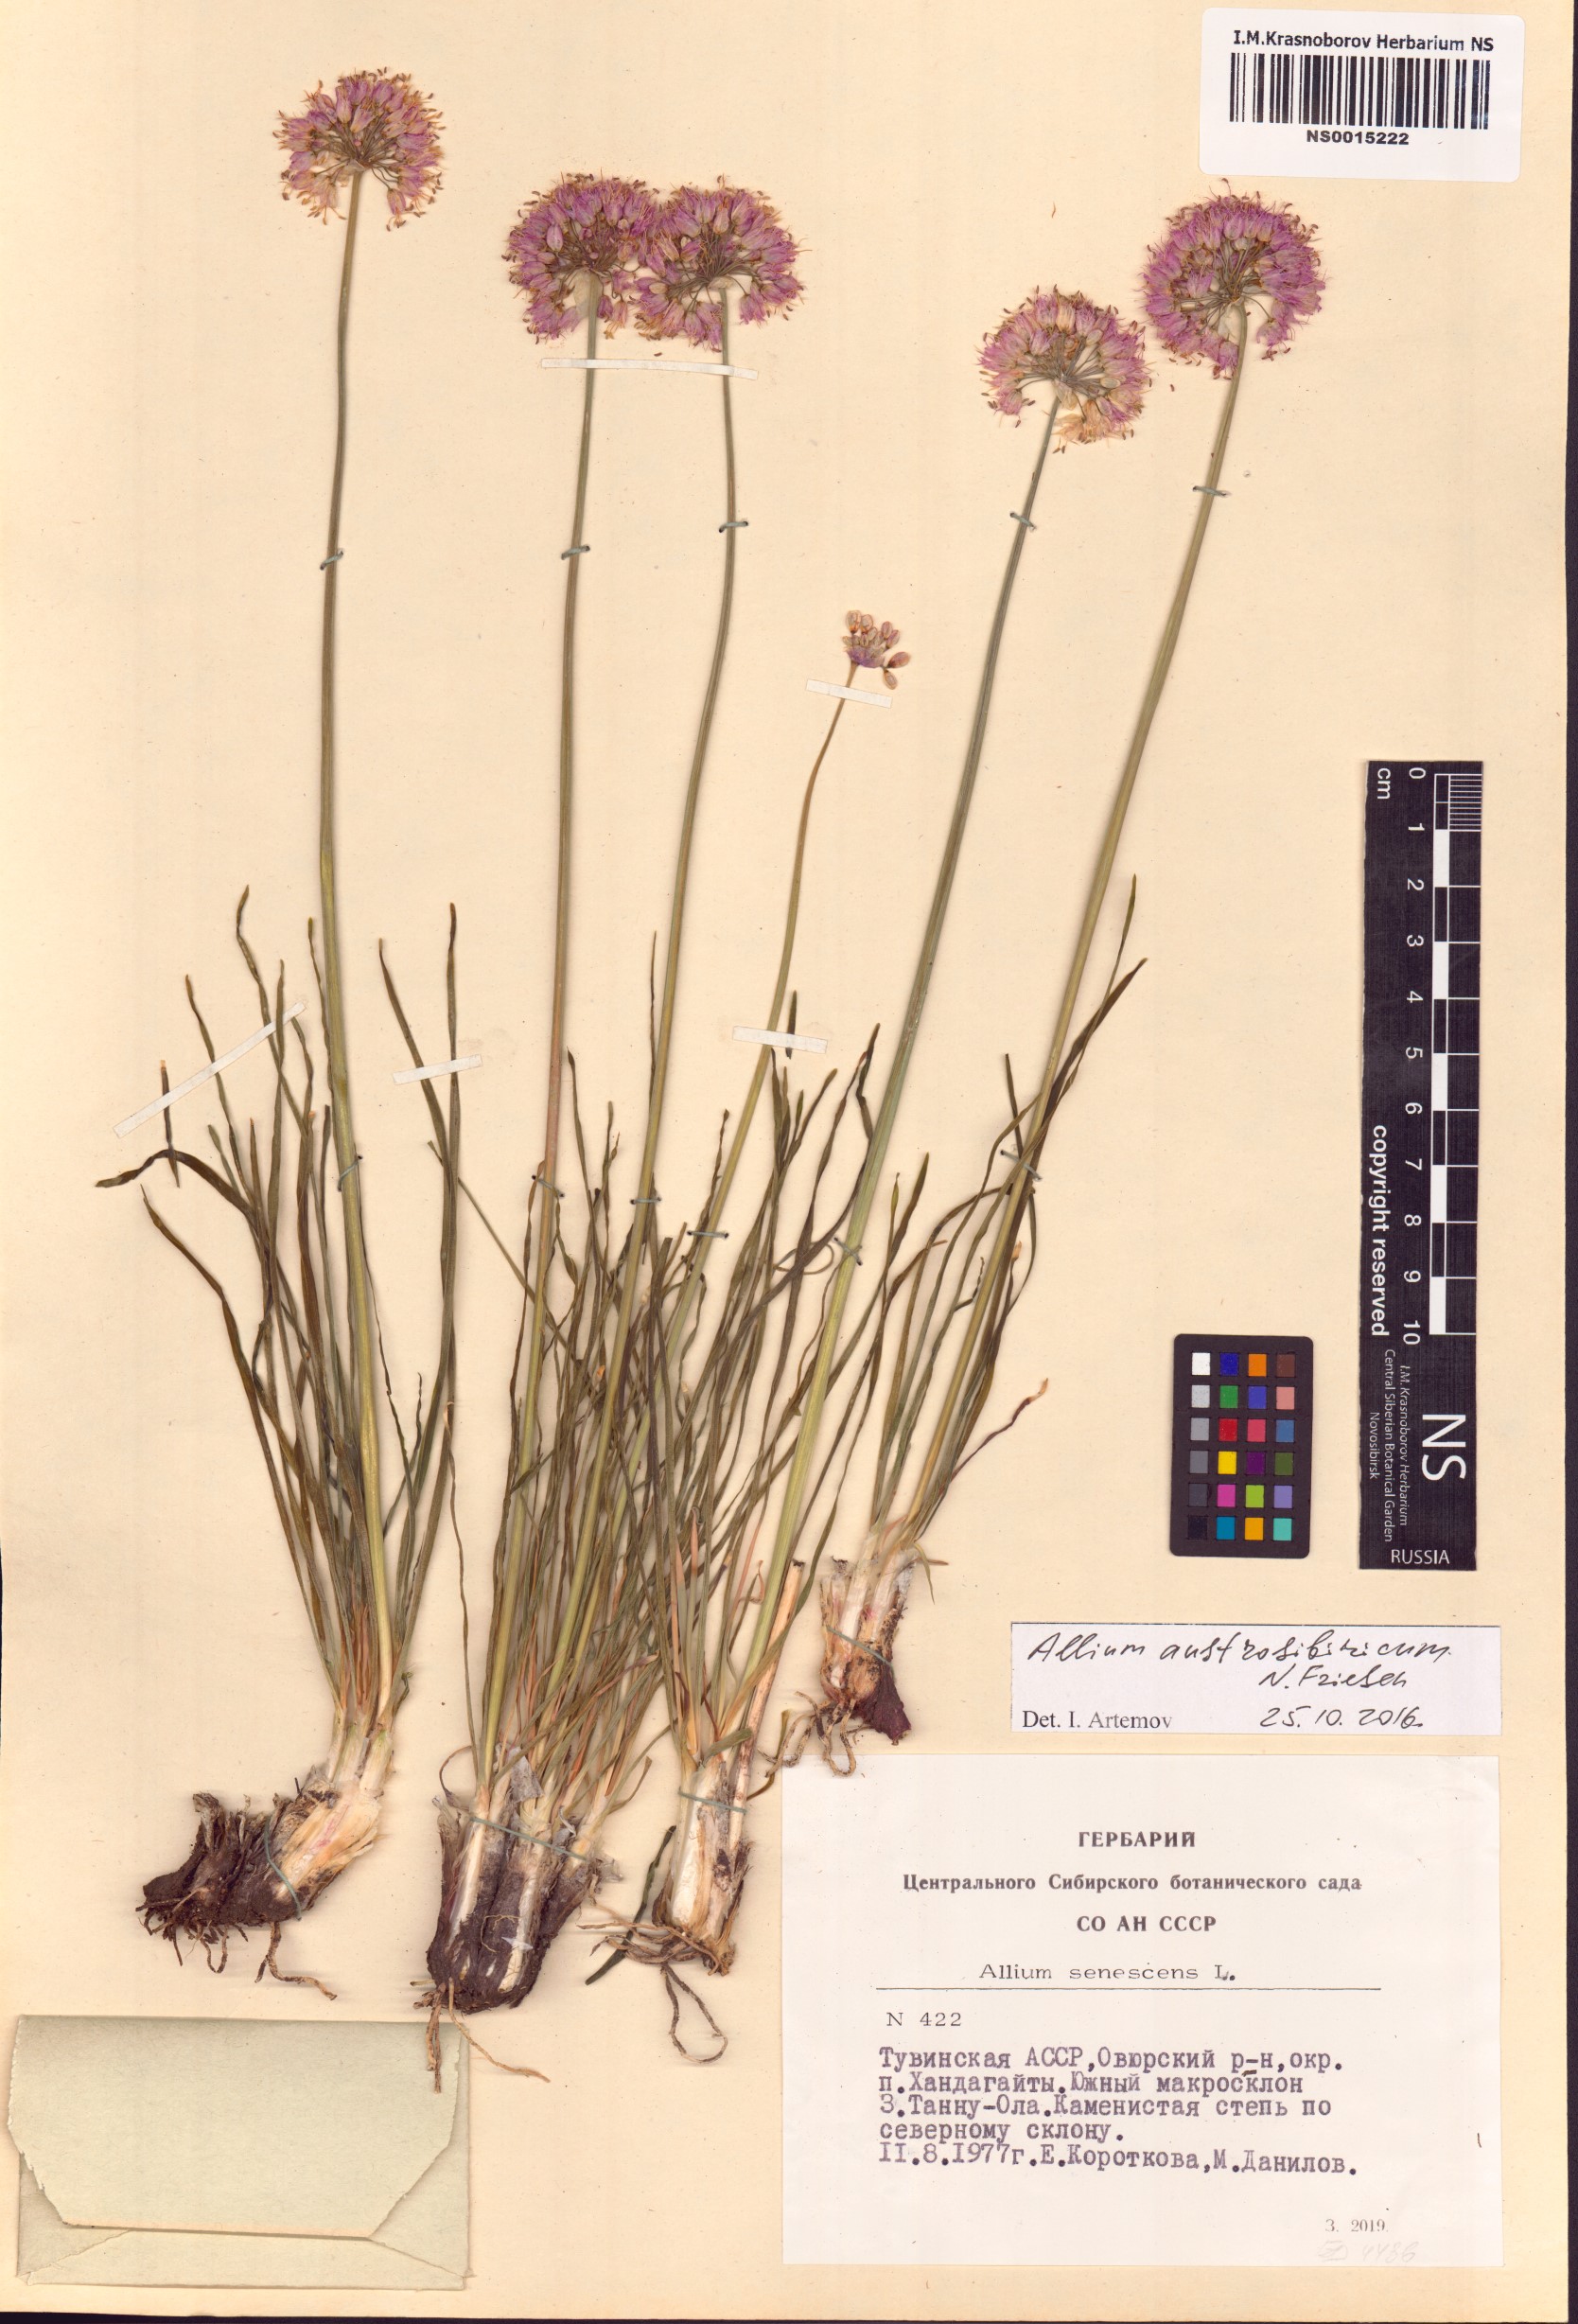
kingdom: Plantae
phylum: Tracheophyta
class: Liliopsida
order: Asparagales
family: Amaryllidaceae
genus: Allium
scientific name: Allium austrosibiricum
